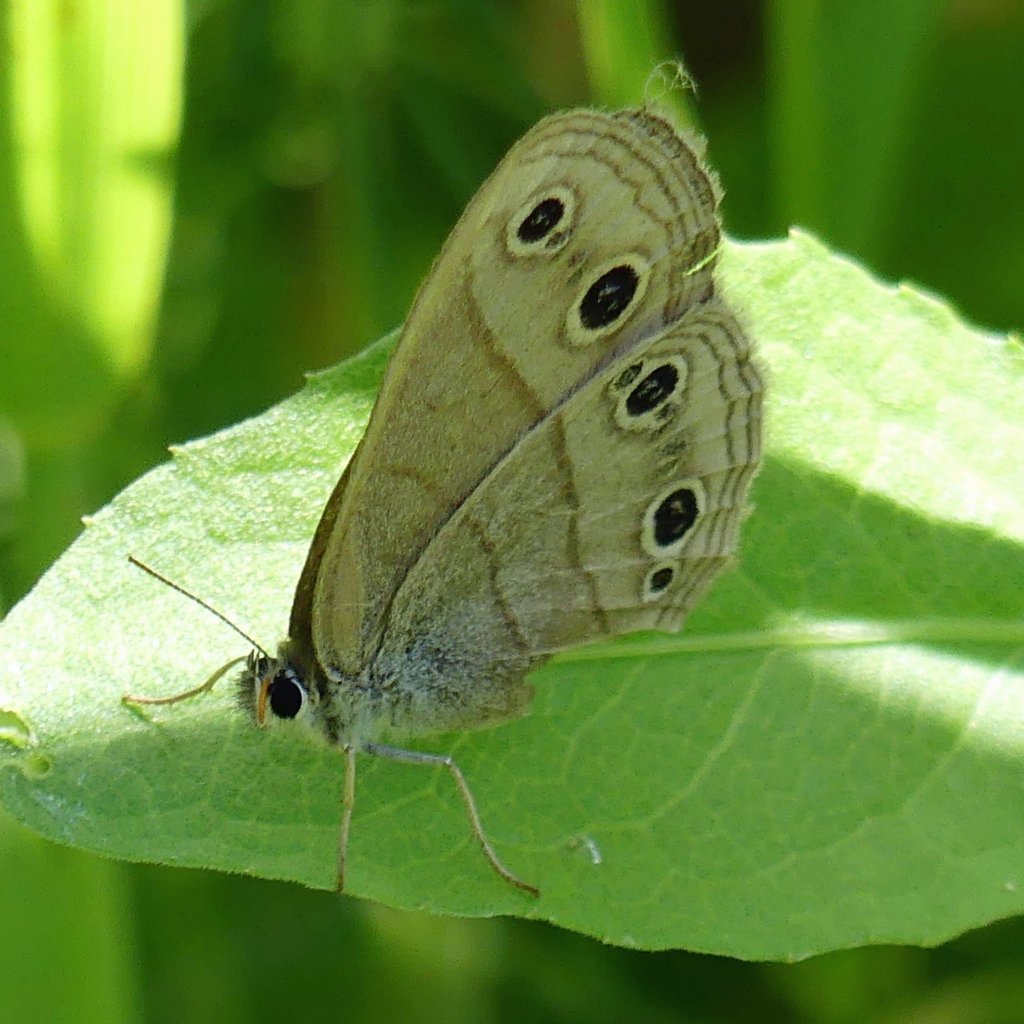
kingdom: Animalia
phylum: Arthropoda
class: Insecta
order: Lepidoptera
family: Nymphalidae
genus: Euptychia
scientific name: Euptychia cymela
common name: Little Wood Satyr
